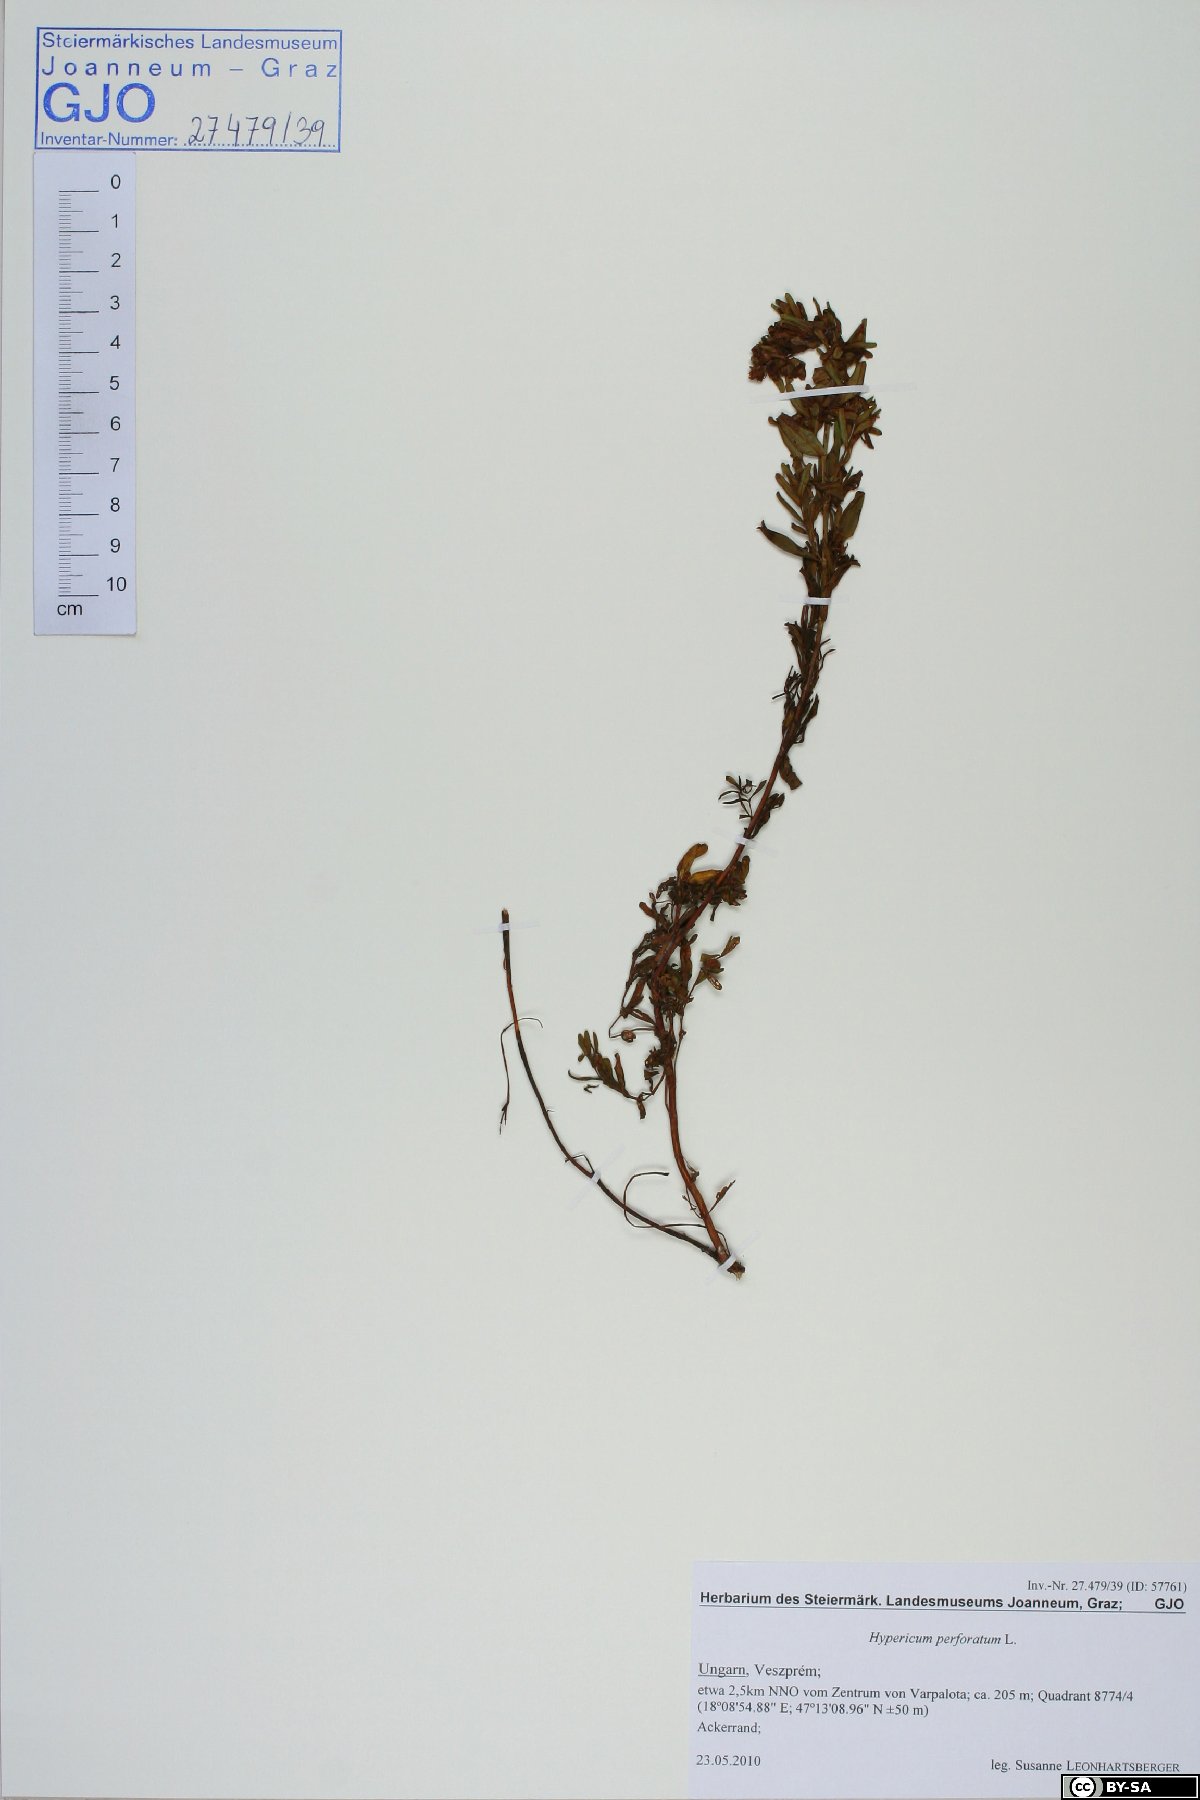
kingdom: Plantae
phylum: Tracheophyta
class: Magnoliopsida
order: Malpighiales
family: Hypericaceae
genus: Hypericum
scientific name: Hypericum perforatum
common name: Common st. johnswort
